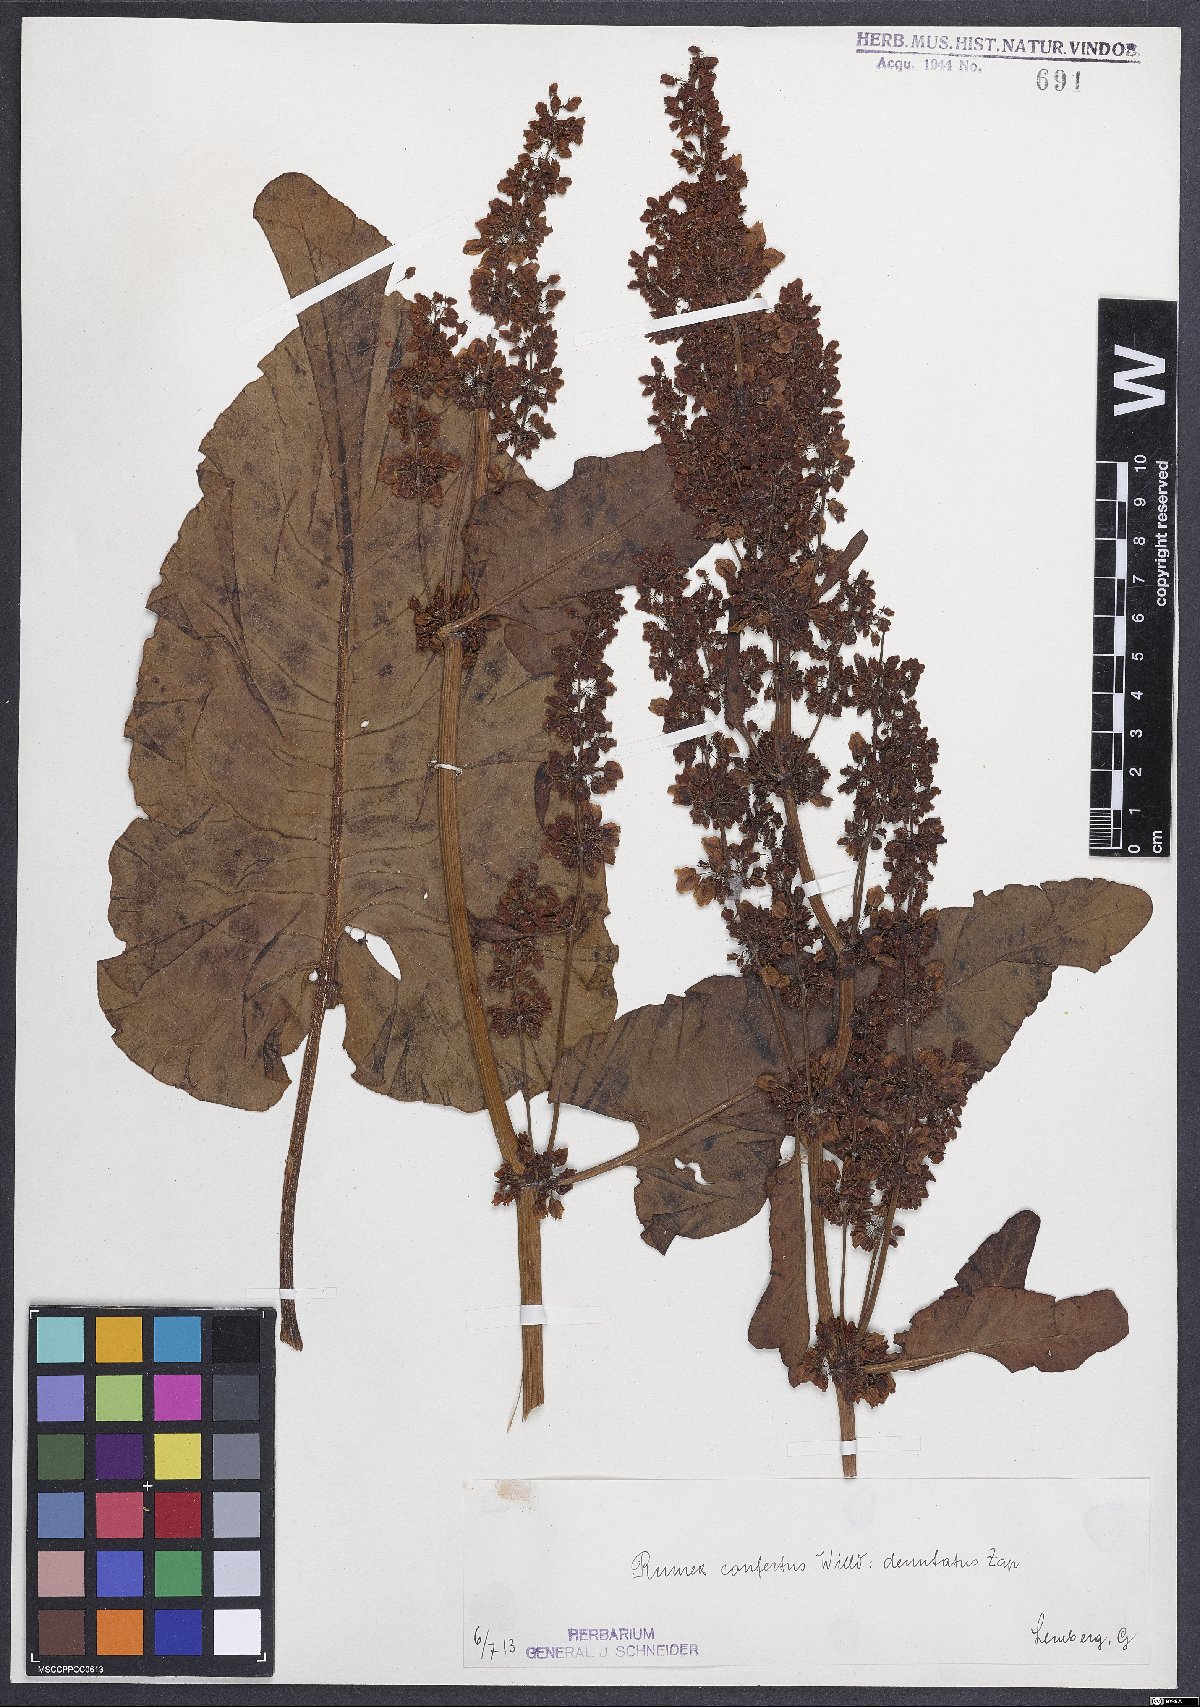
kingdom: Plantae
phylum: Tracheophyta
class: Magnoliopsida
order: Caryophyllales
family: Polygonaceae
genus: Rumex
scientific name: Rumex confertus
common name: Russian dock
